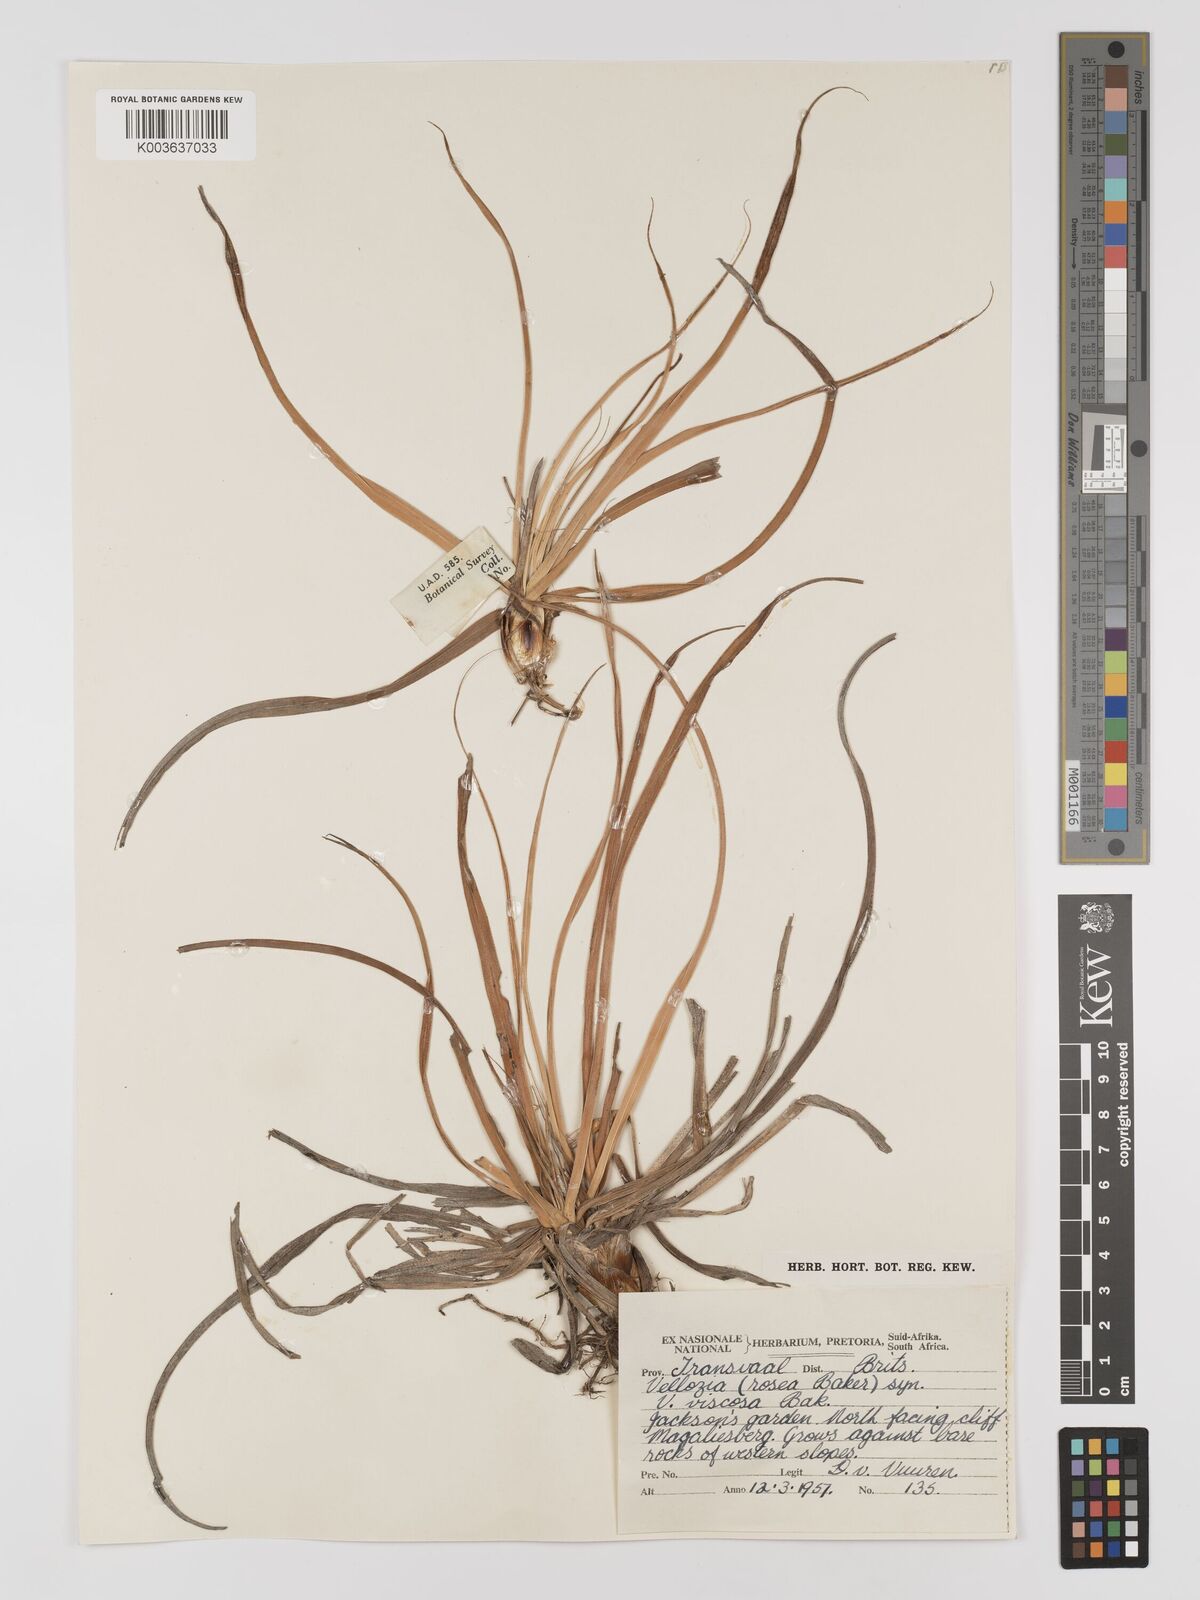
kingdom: Plantae
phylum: Tracheophyta
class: Liliopsida
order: Pandanales
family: Velloziaceae
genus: Xerophyta
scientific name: Xerophyta viscosa
